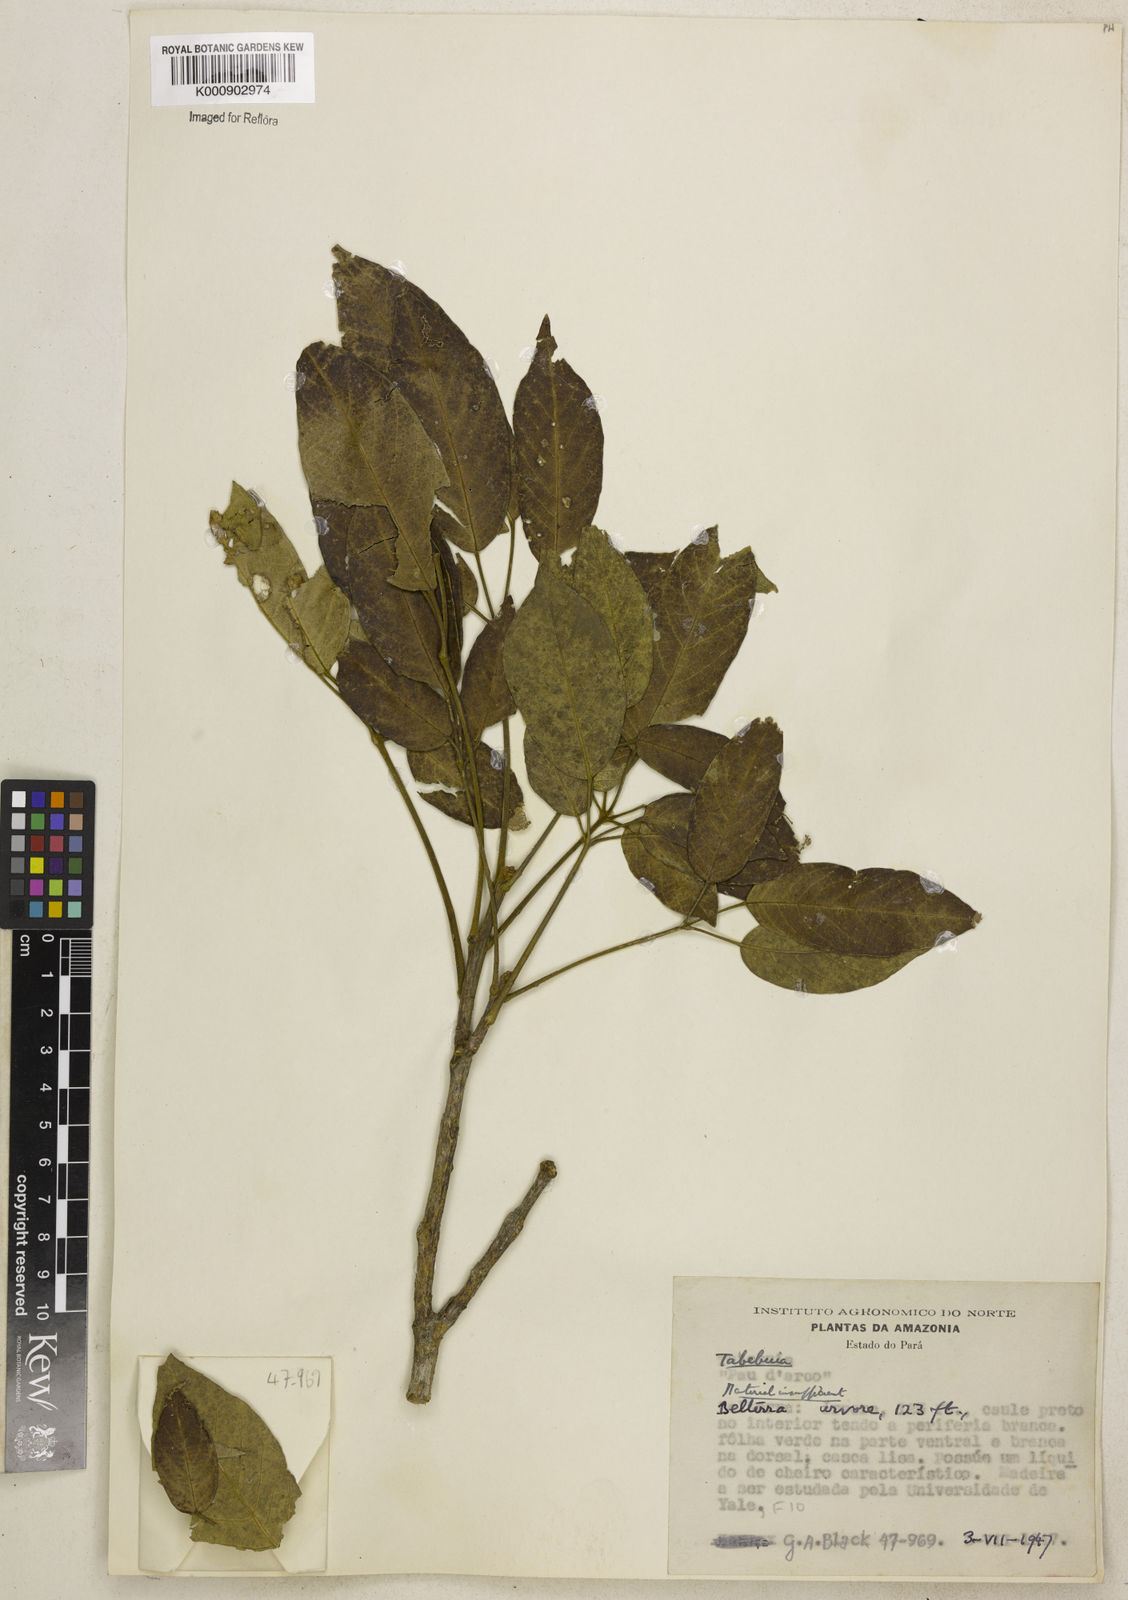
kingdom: Plantae
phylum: Tracheophyta
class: Magnoliopsida
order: Lamiales
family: Bignoniaceae
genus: Tabebuia
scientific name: Tabebuia
